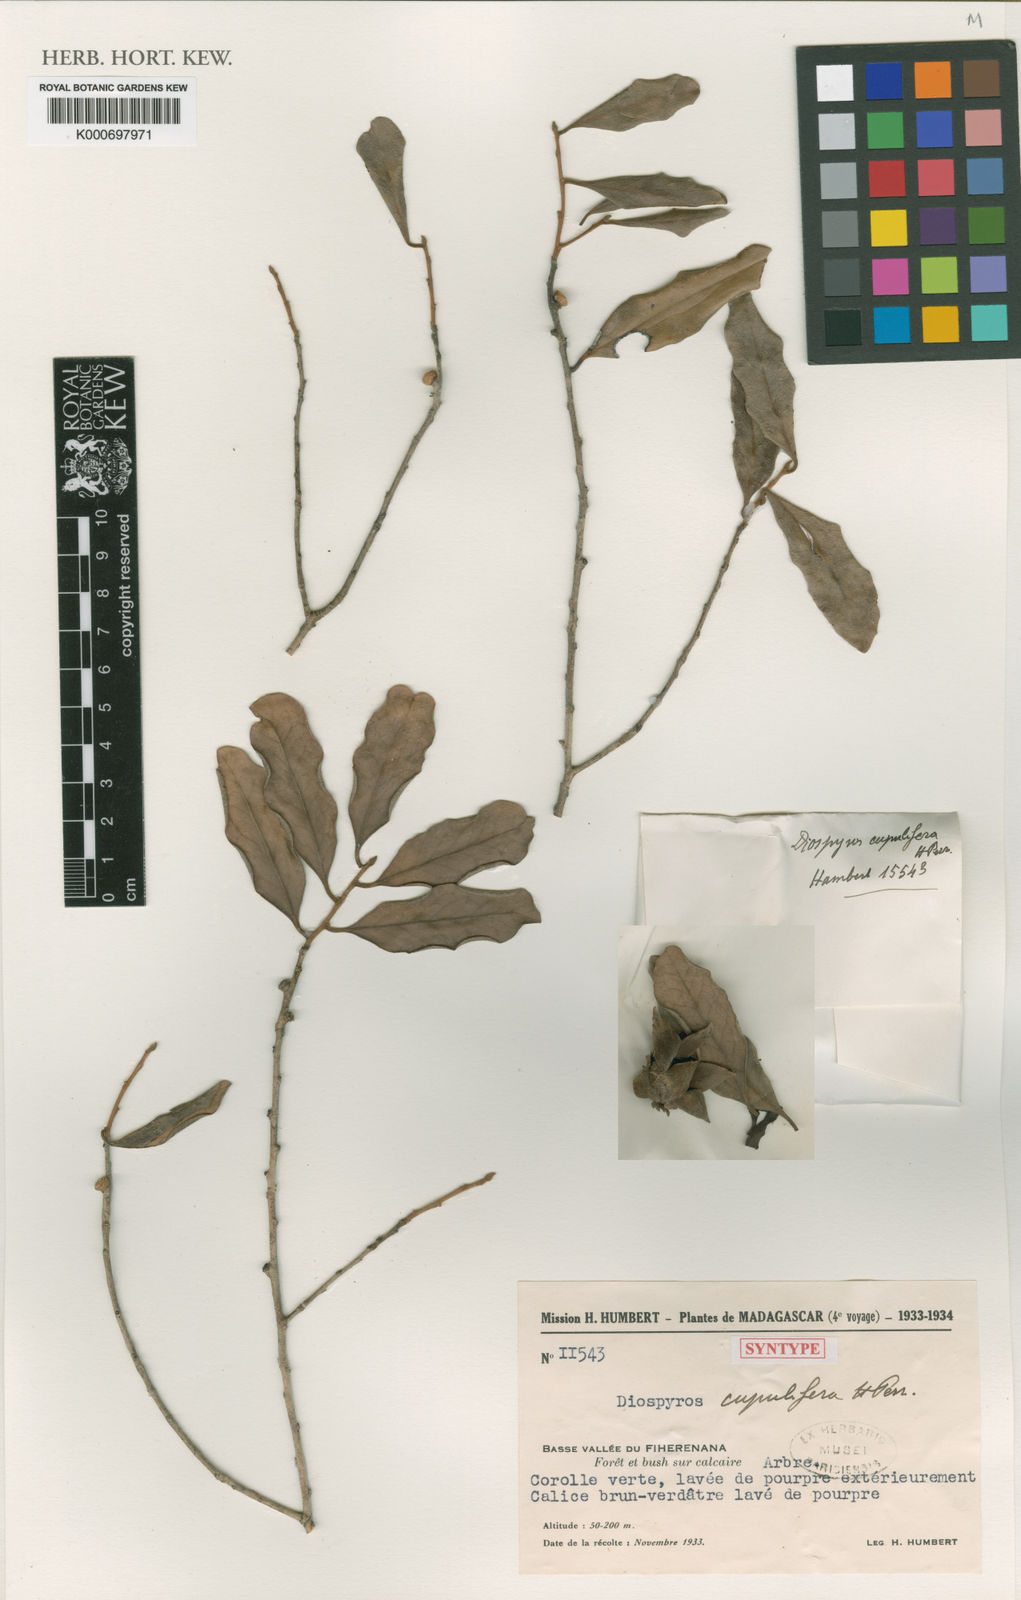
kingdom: Plantae
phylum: Tracheophyta
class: Magnoliopsida
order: Ericales
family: Ebenaceae
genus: Diospyros
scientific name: Diospyros cupulifera
